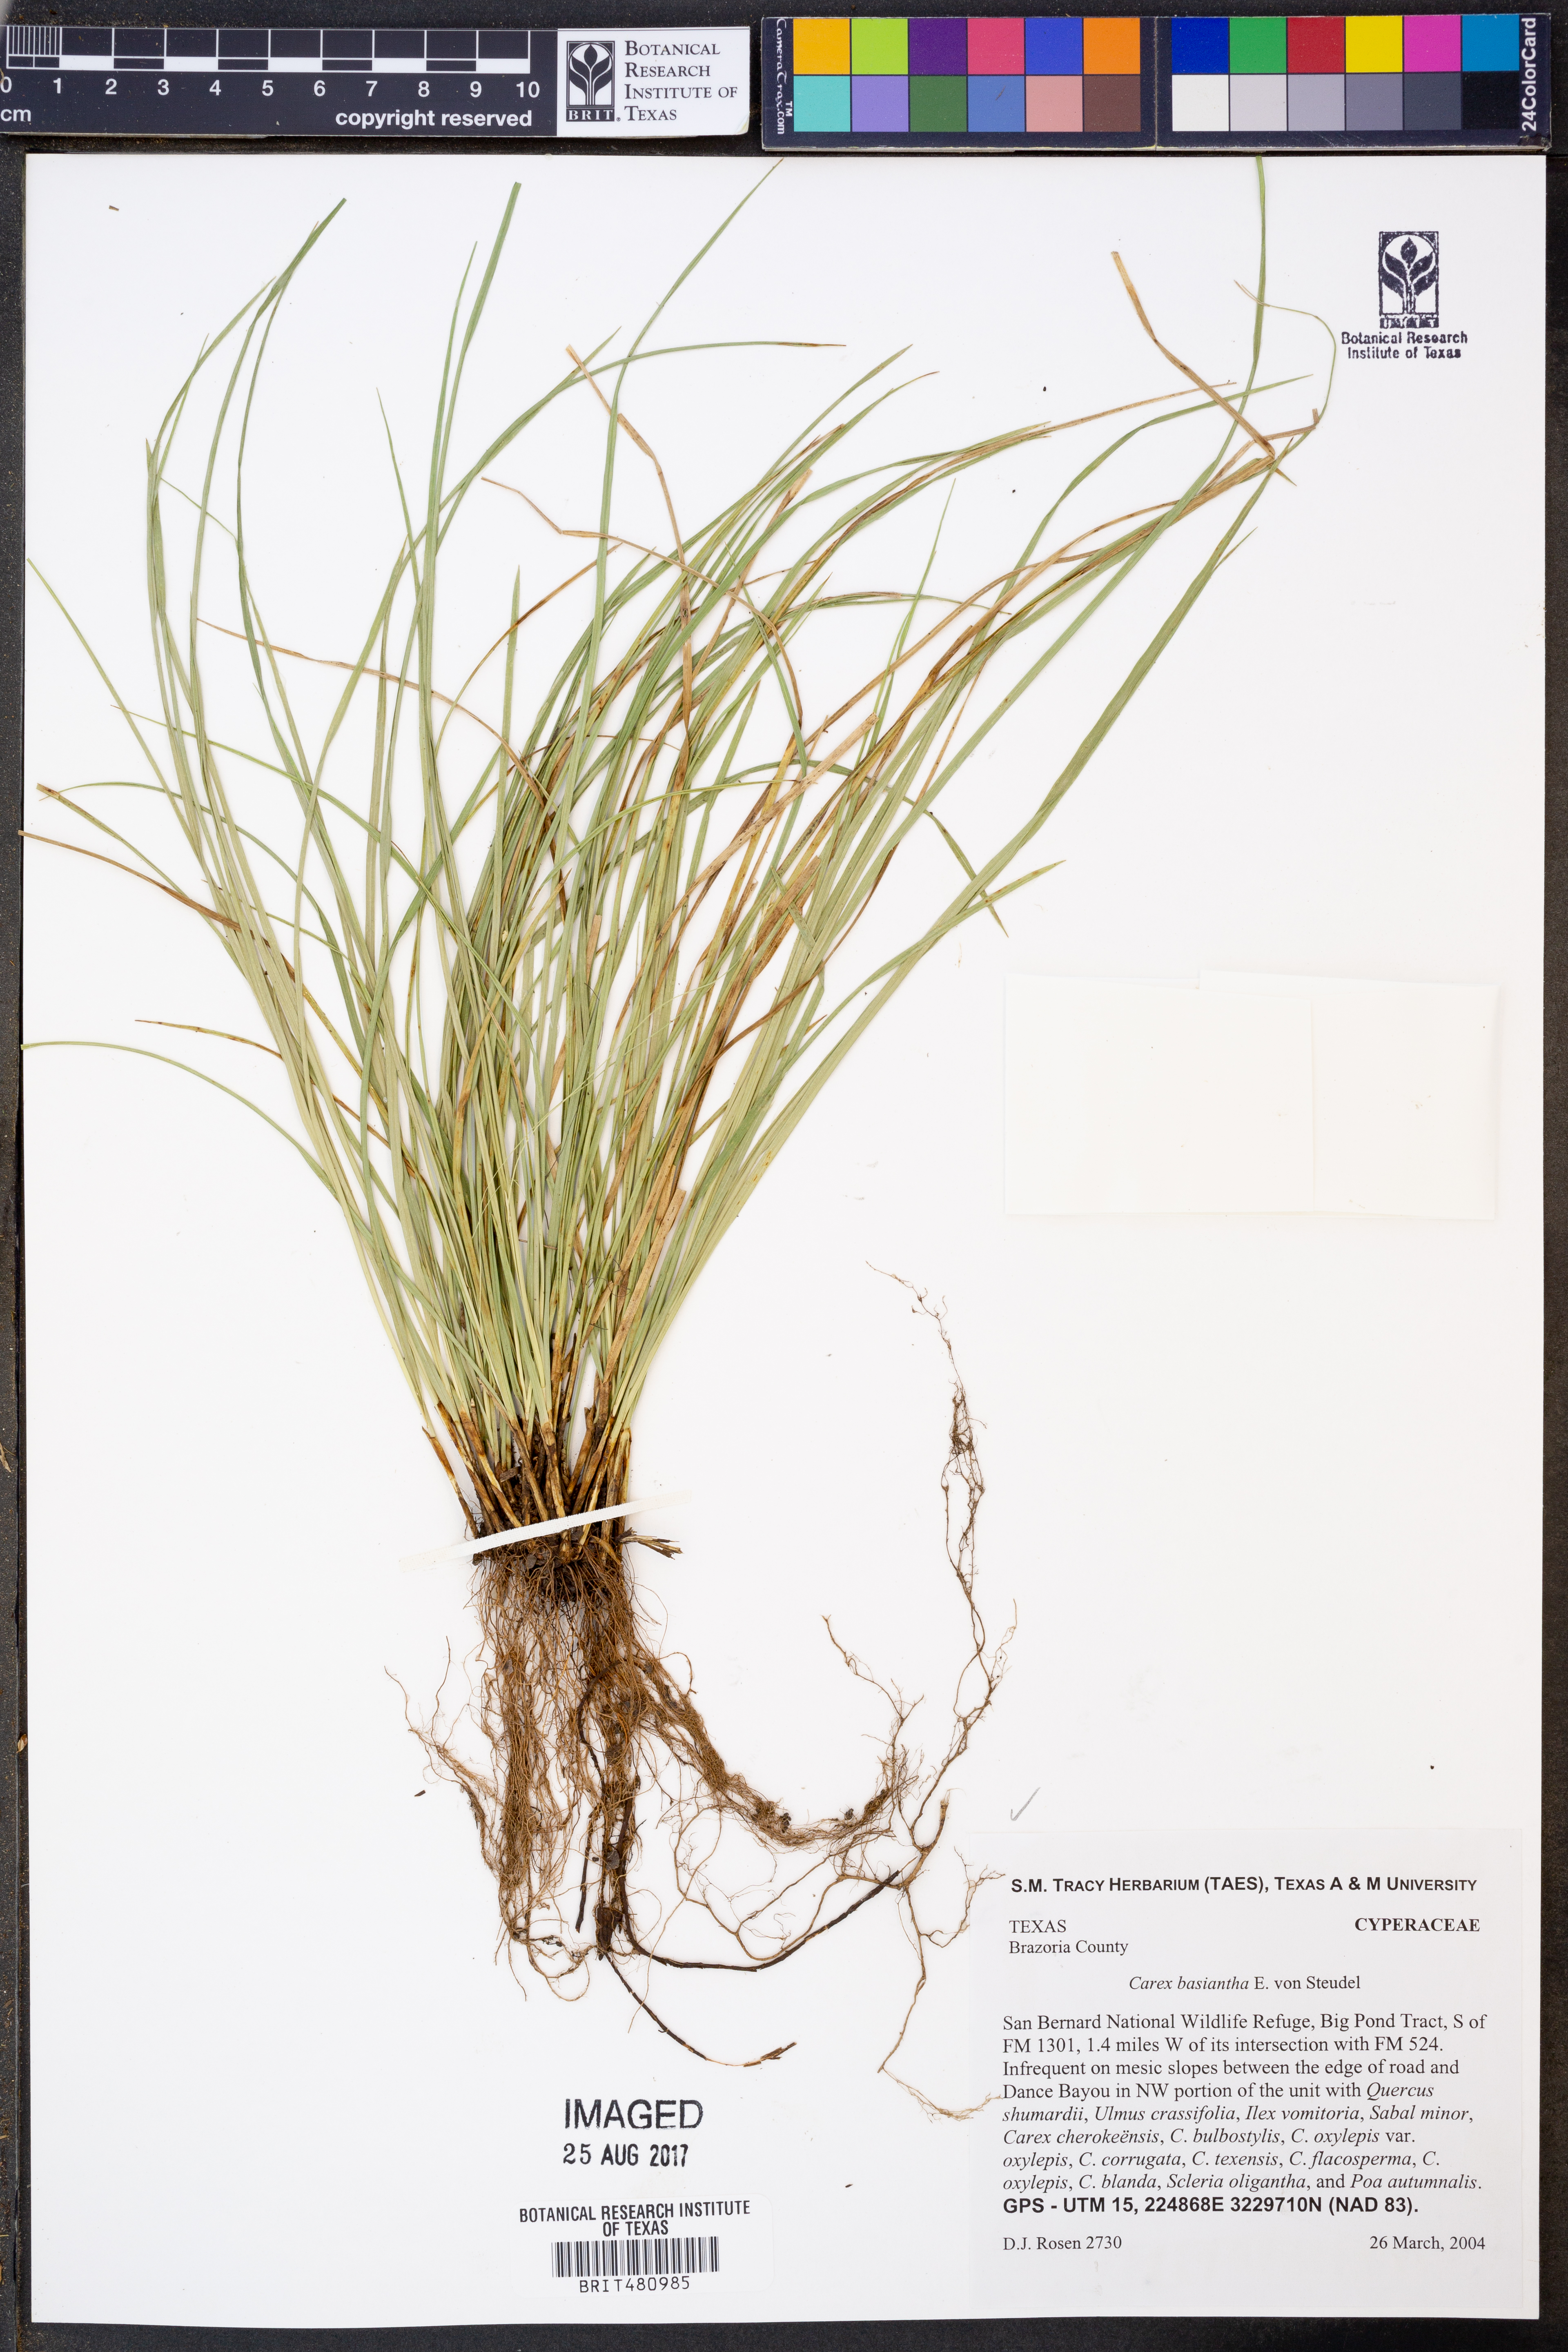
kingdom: Plantae
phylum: Tracheophyta
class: Liliopsida
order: Poales
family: Cyperaceae
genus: Carex
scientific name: Carex basiantha
